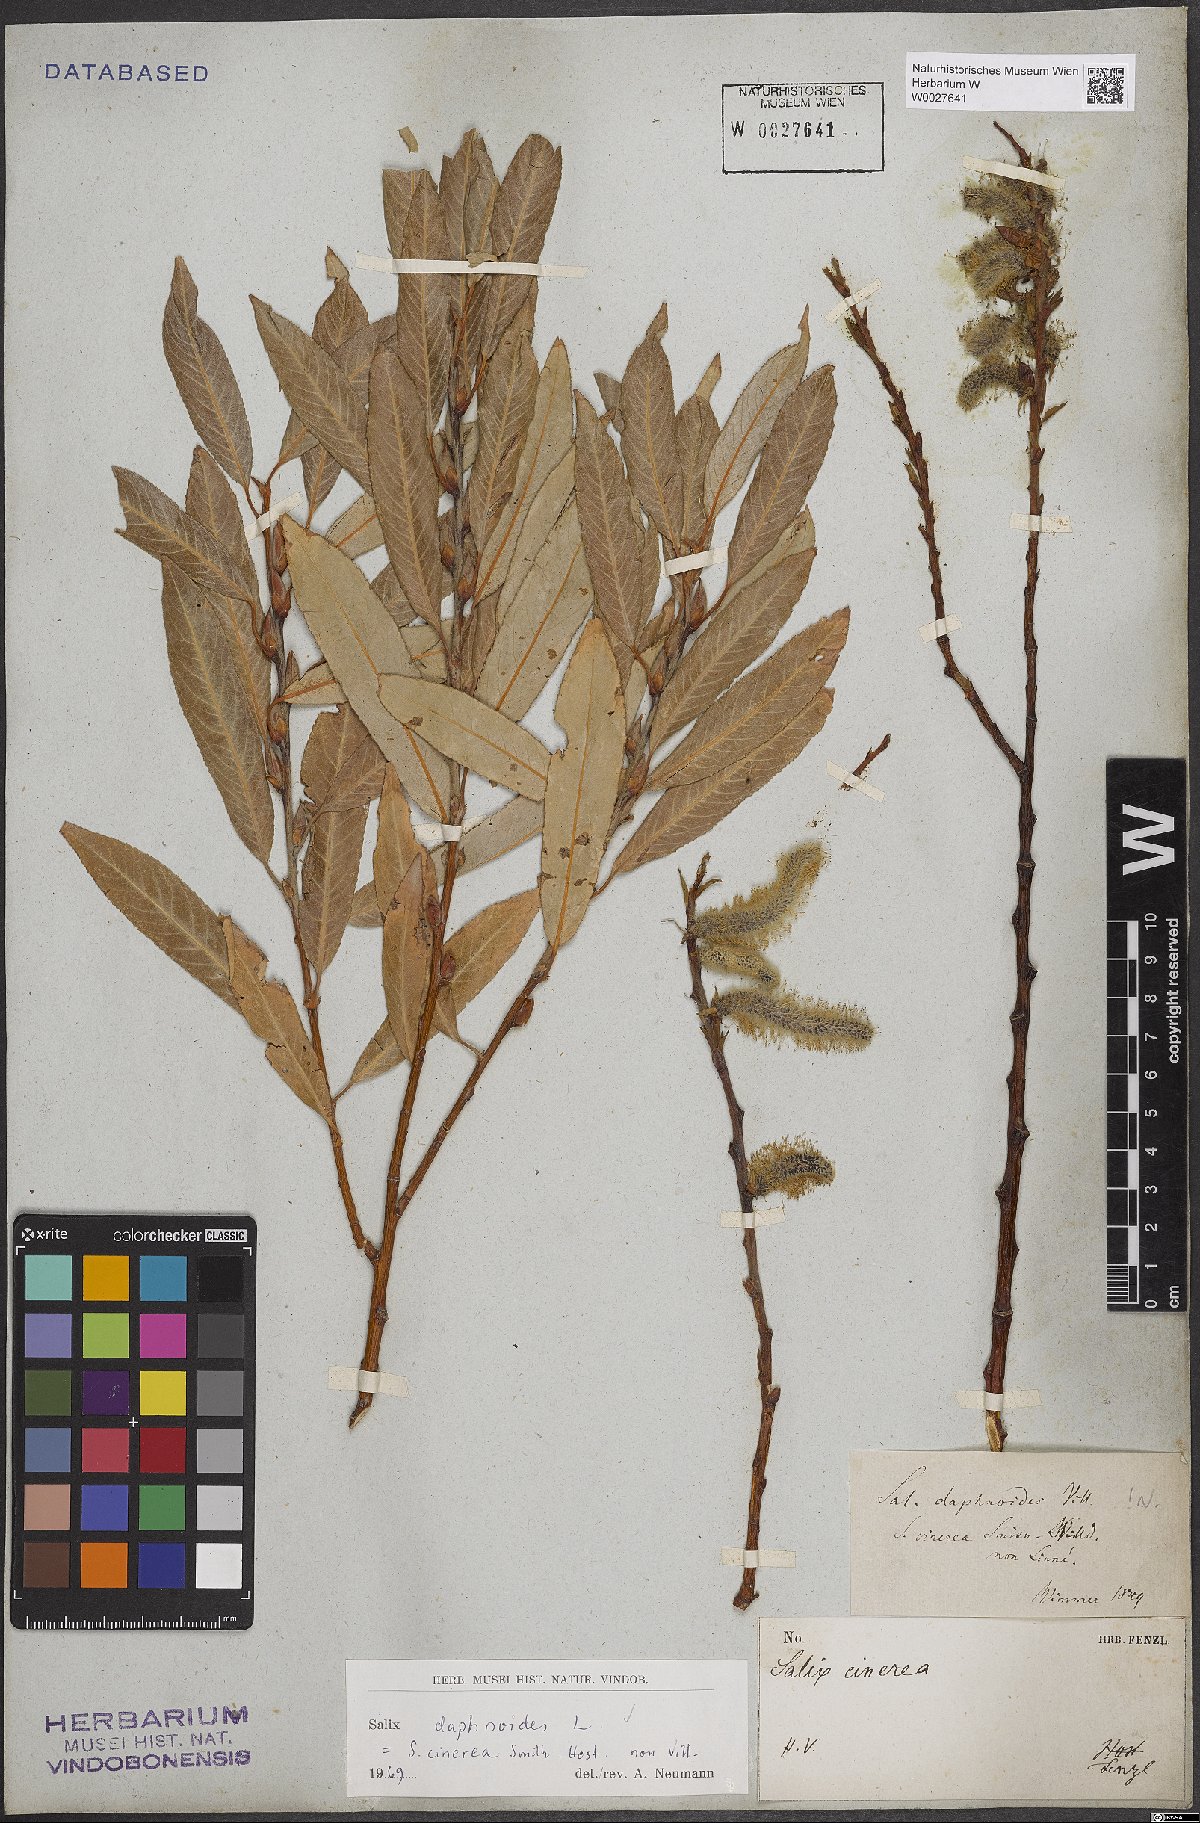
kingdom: Plantae
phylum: Tracheophyta
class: Magnoliopsida
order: Malpighiales
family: Salicaceae
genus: Salix
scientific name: Salix daphnoides
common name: European violet-willow
